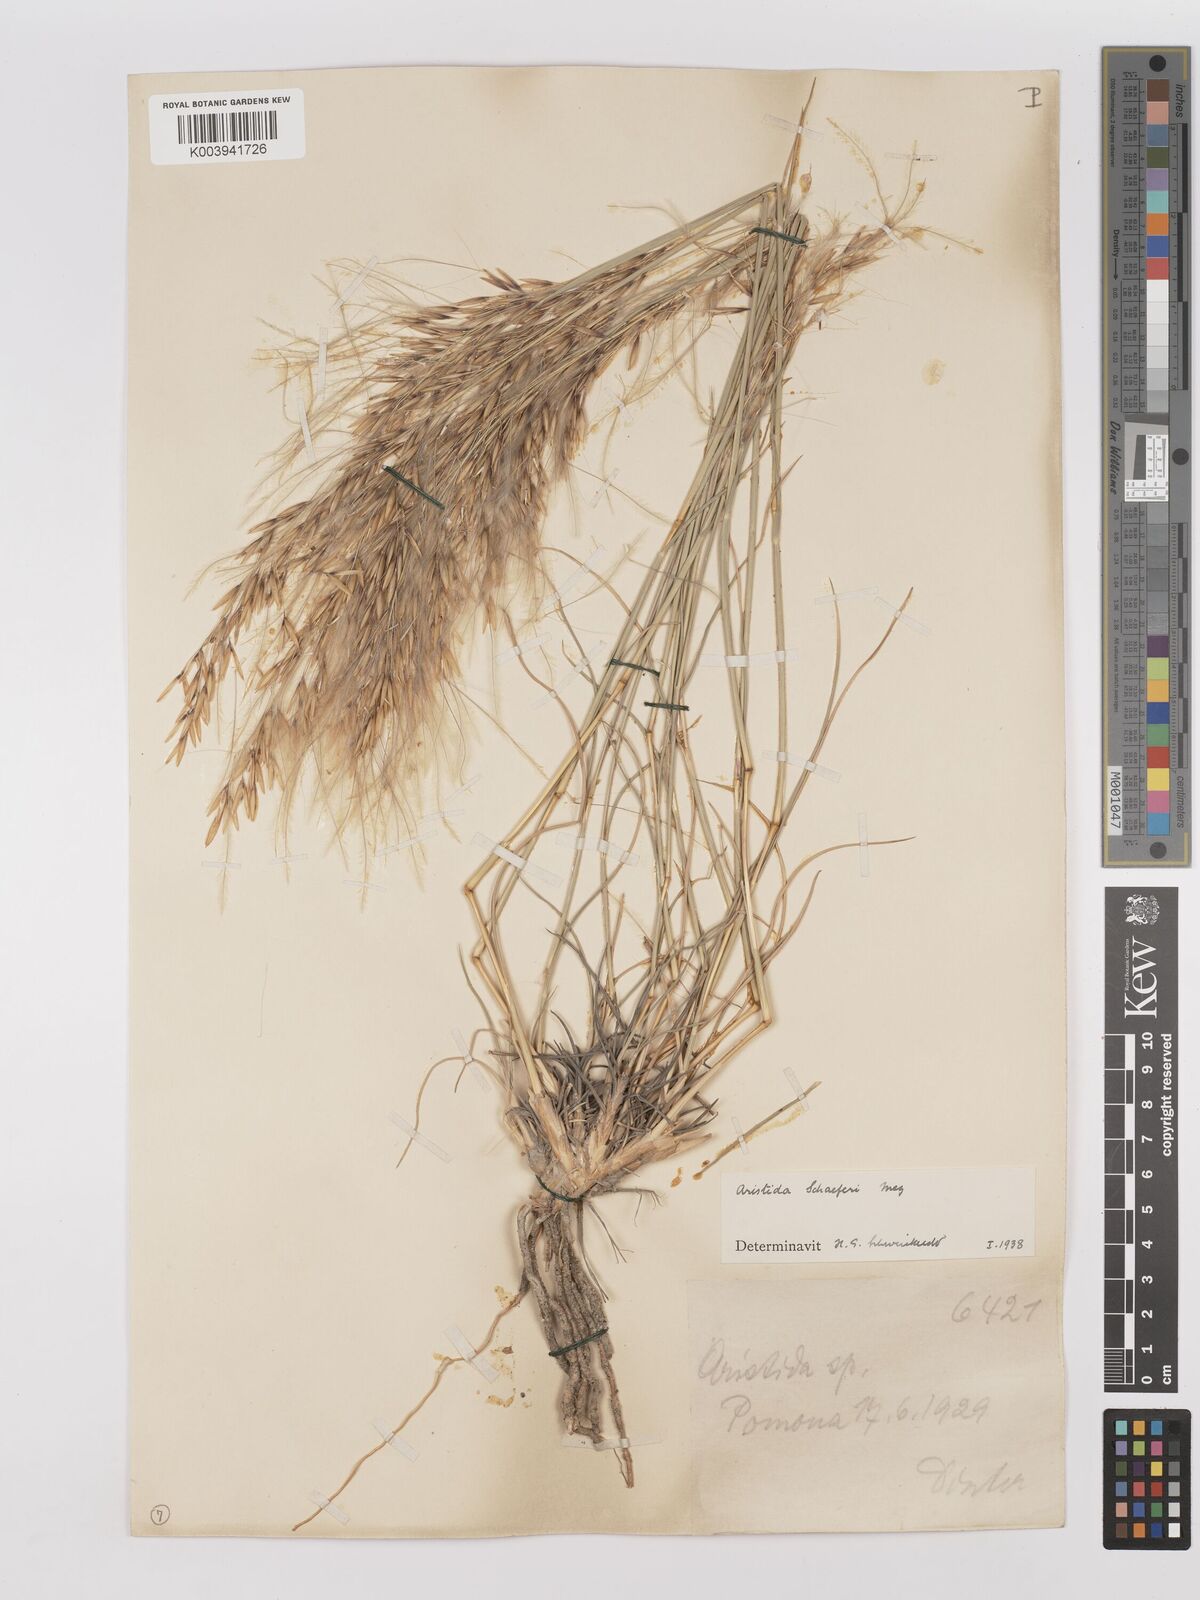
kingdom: Plantae
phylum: Tracheophyta
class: Liliopsida
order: Poales
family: Poaceae
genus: Stipagrostis
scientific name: Stipagrostis schaeferi
